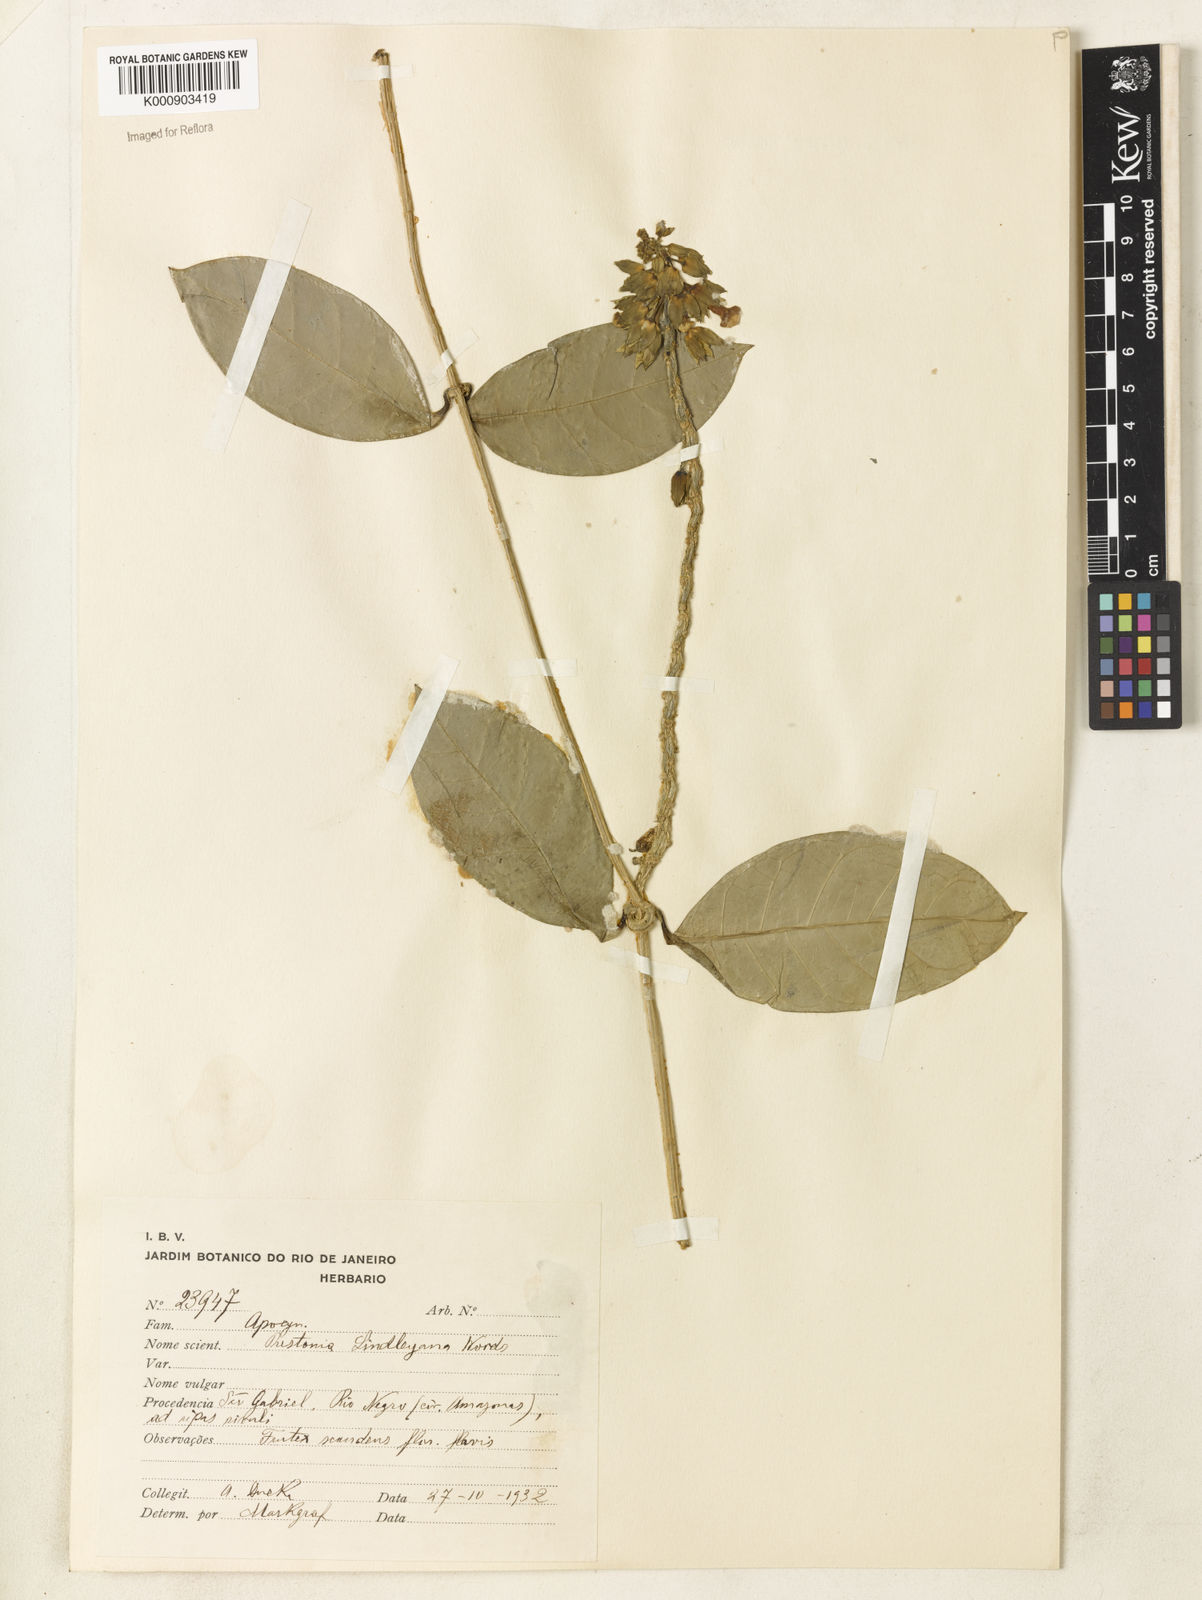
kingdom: Plantae
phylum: Tracheophyta
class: Magnoliopsida
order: Gentianales
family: Apocynaceae
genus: Prestonia
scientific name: Prestonia lindleyana
